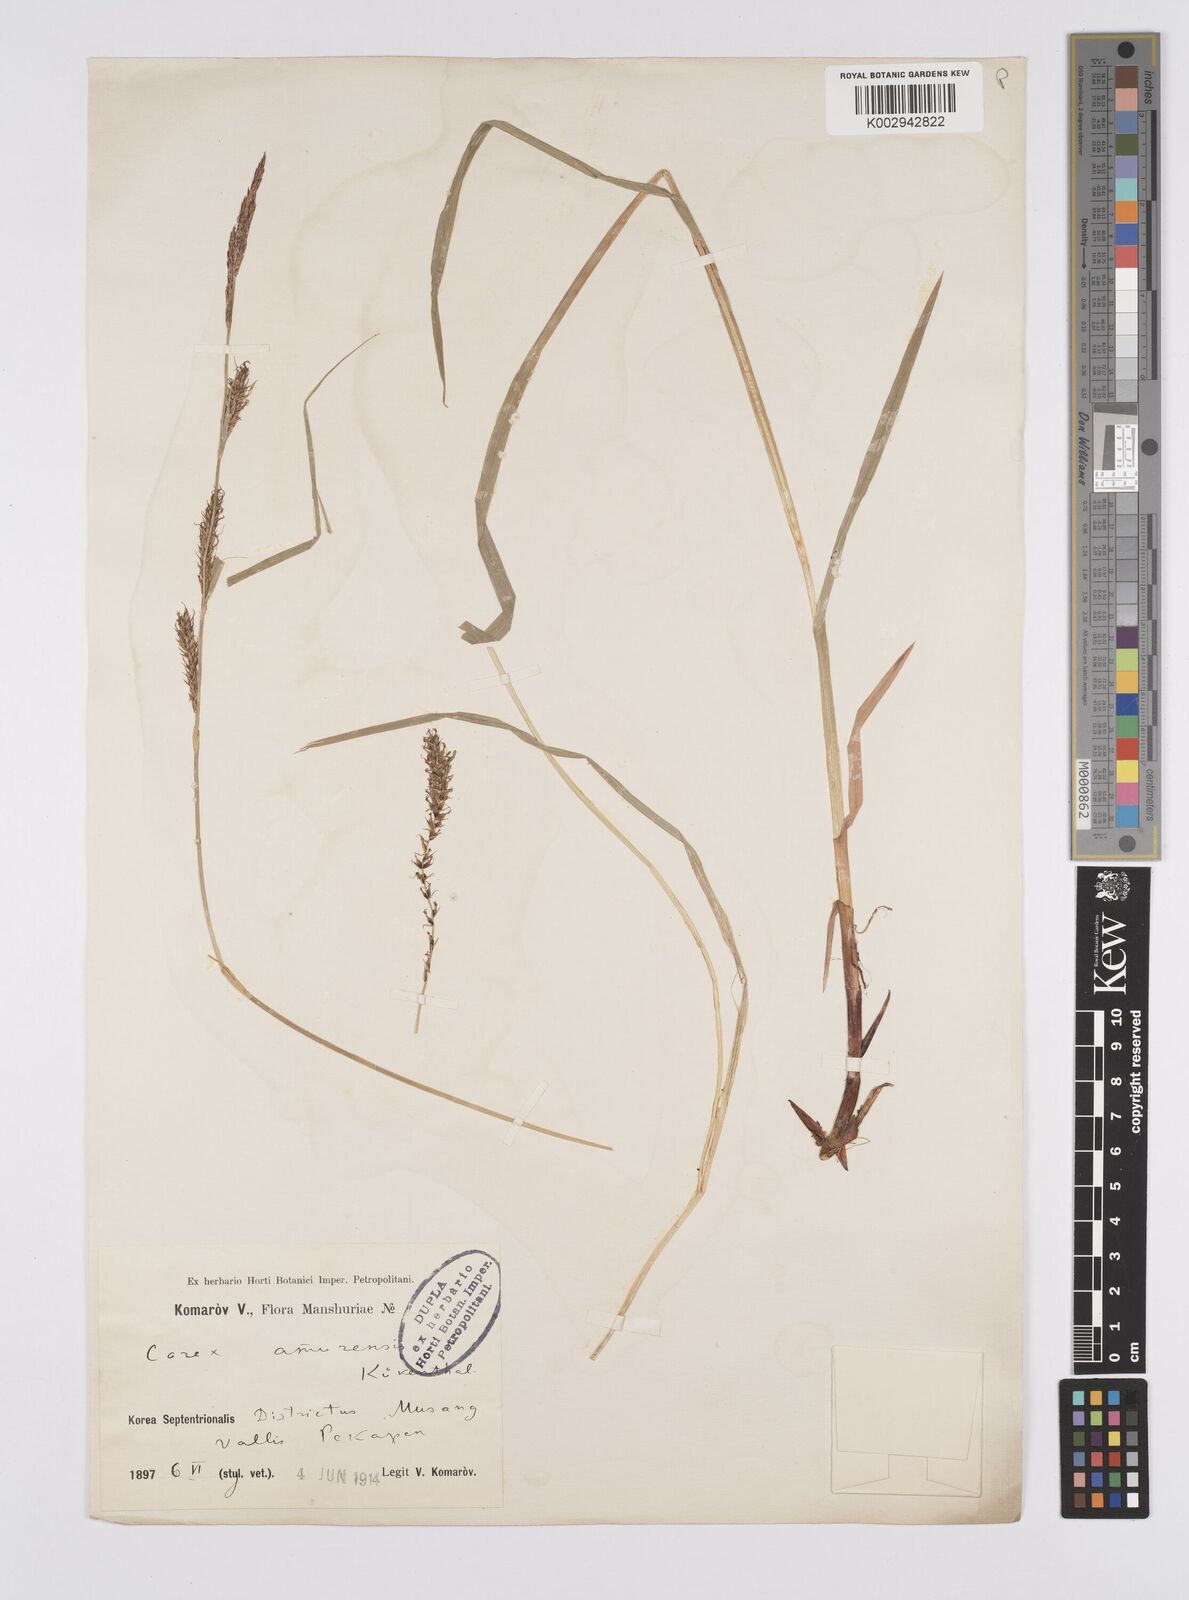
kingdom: Plantae
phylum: Tracheophyta
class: Liliopsida
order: Poales
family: Cyperaceae
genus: Carex
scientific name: Carex drymophila
